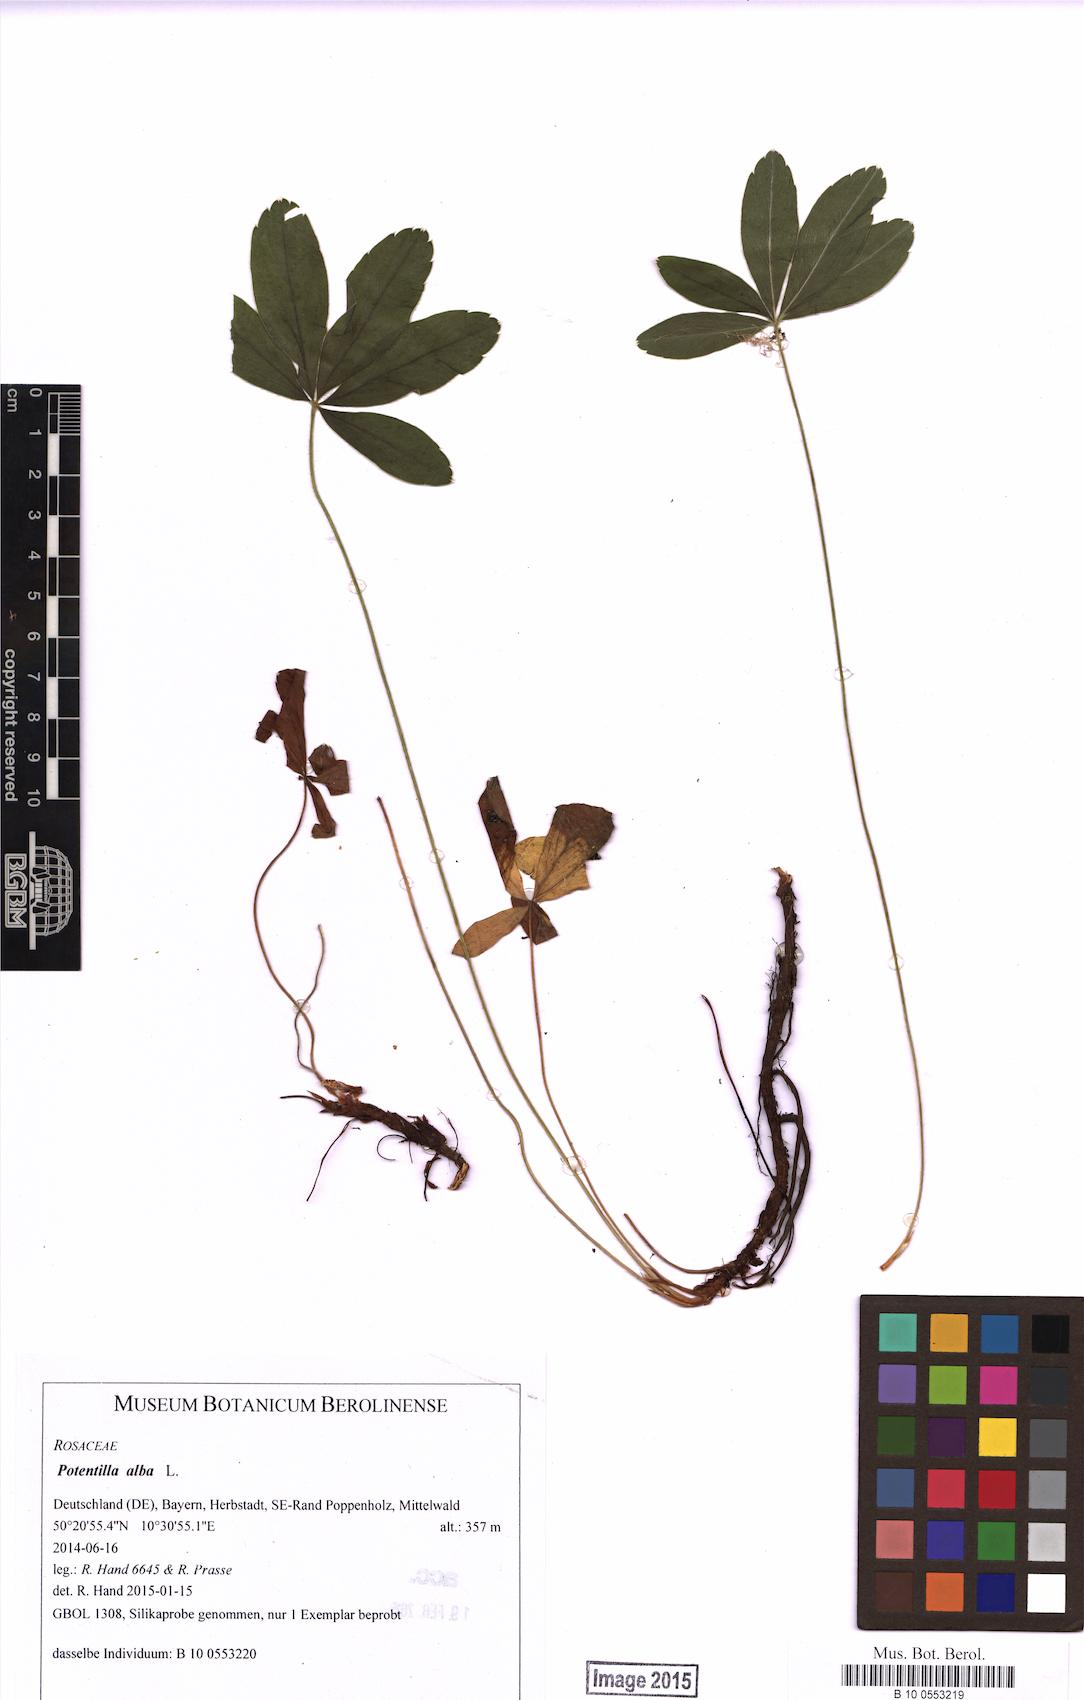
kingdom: Plantae
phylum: Tracheophyta
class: Magnoliopsida
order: Rosales
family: Rosaceae
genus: Potentilla
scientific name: Potentilla alba
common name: White cinquefoil
